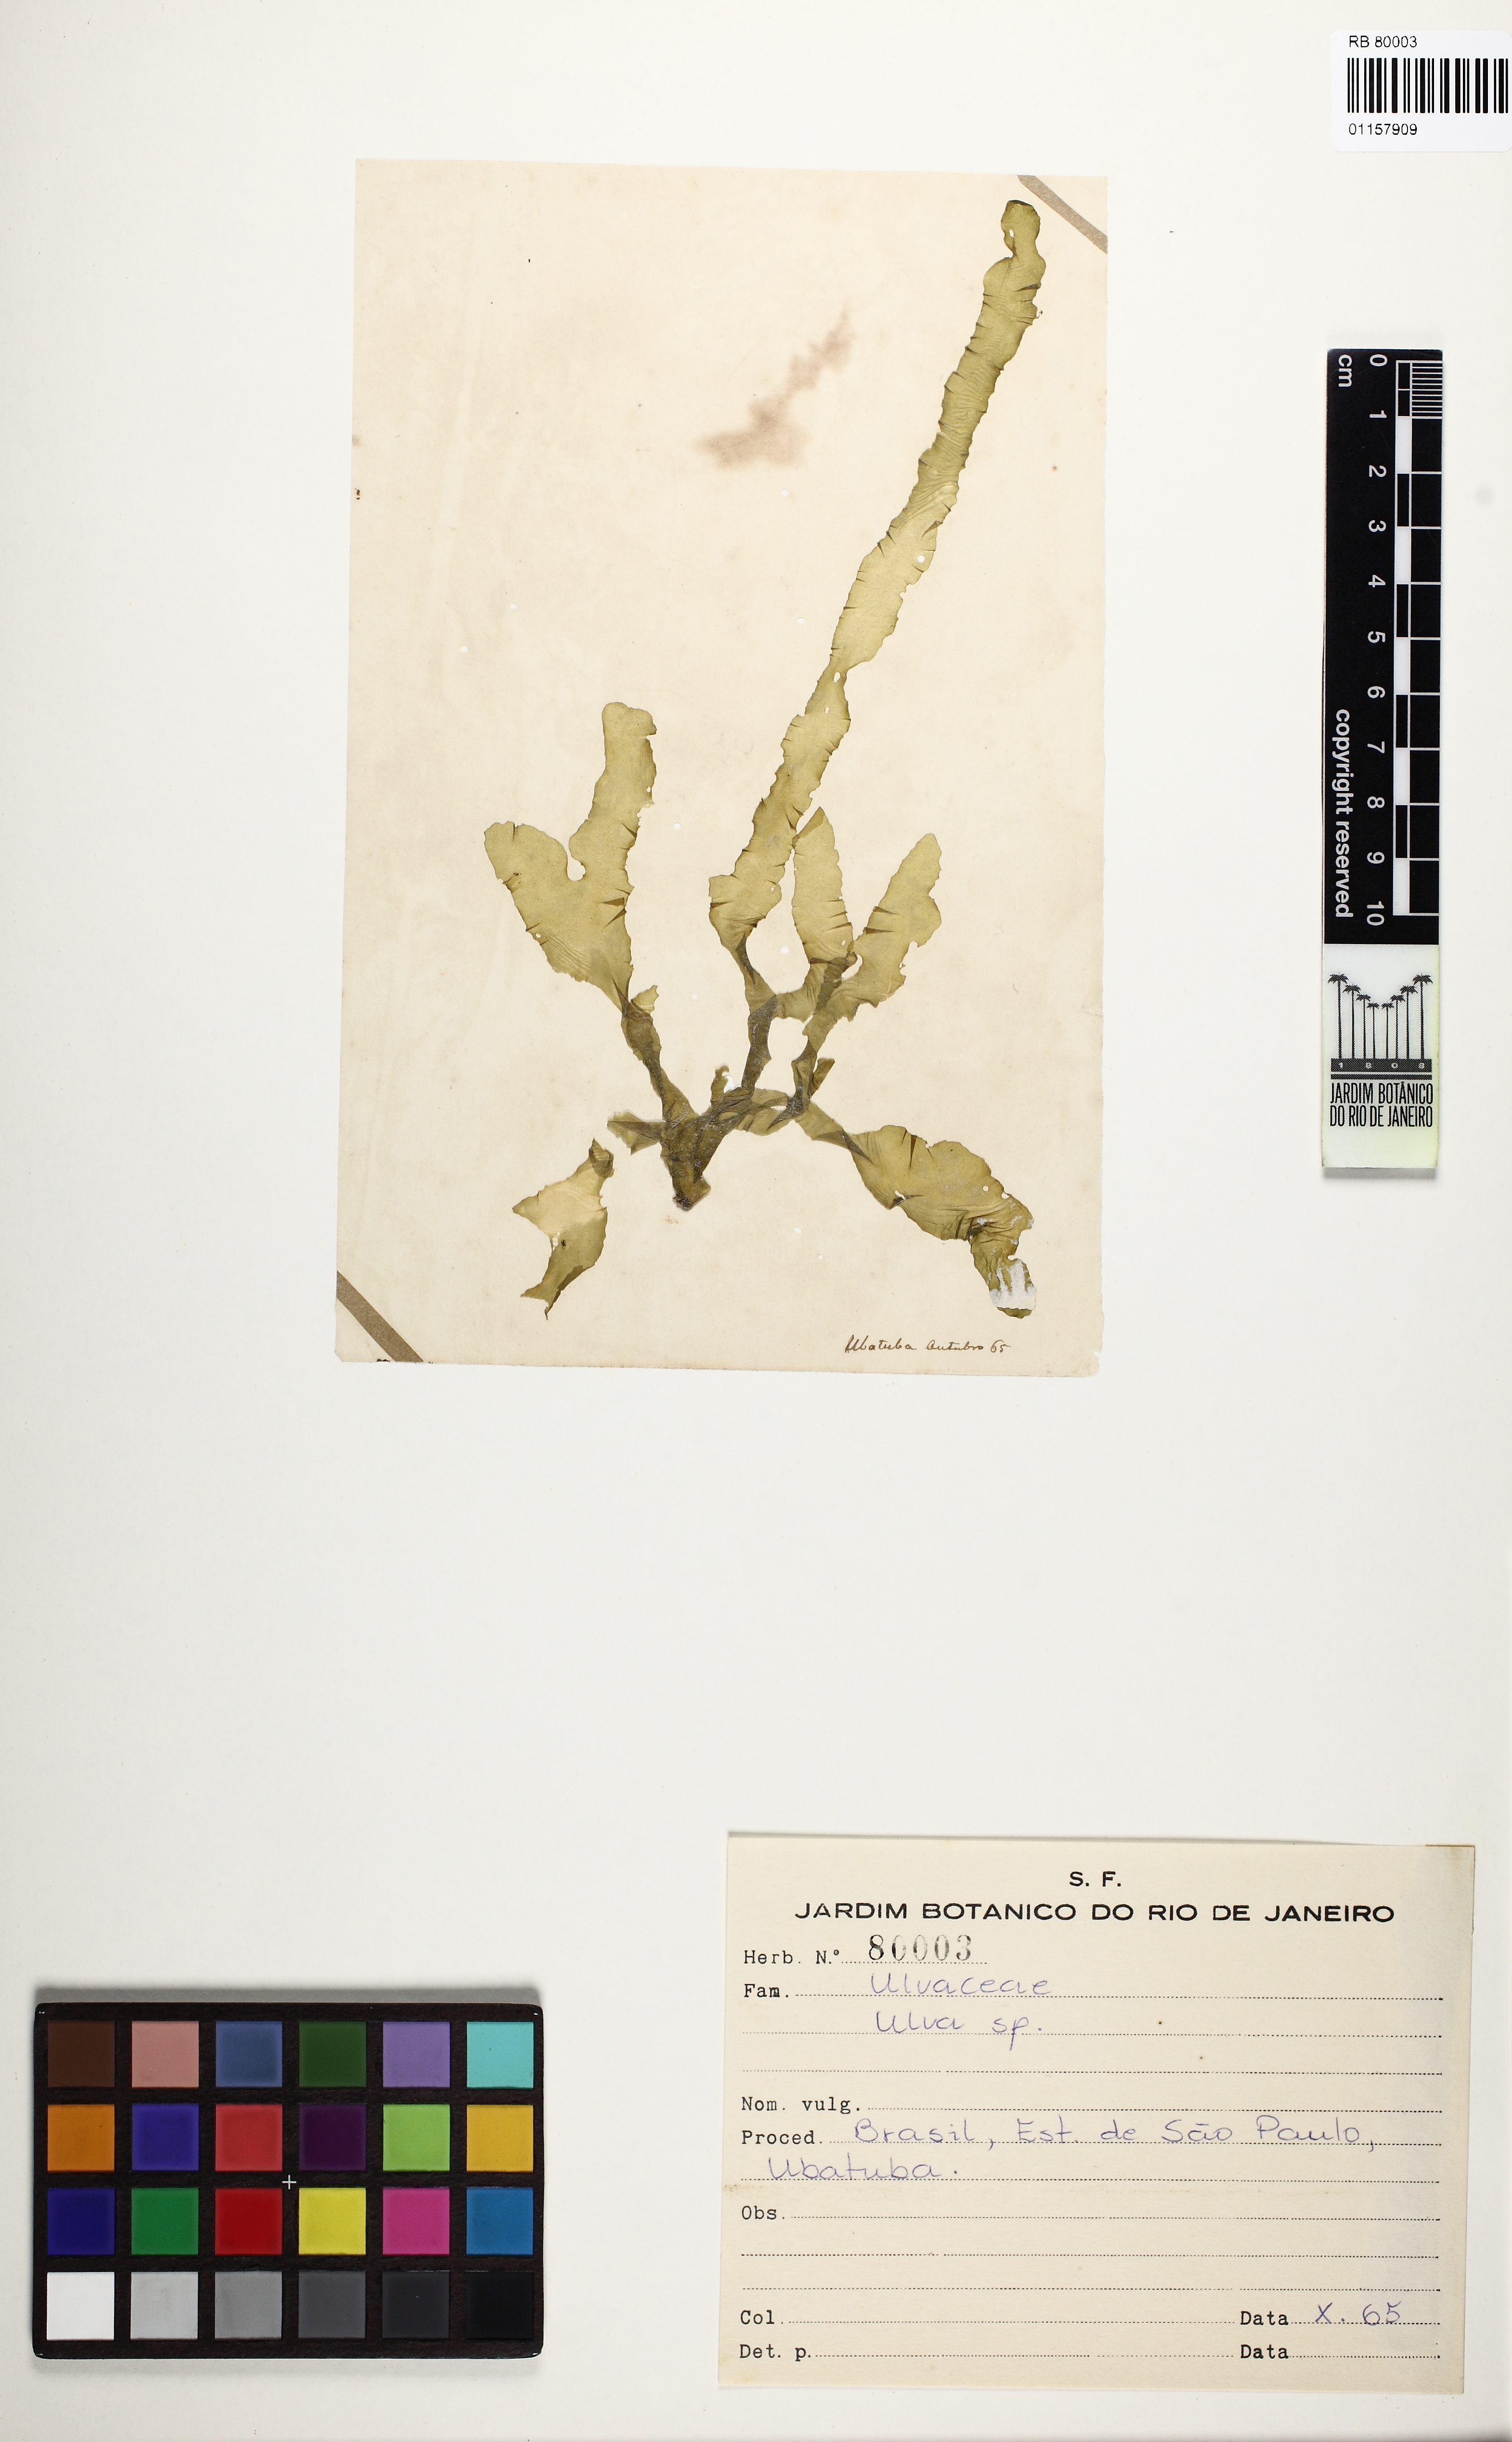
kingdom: Plantae
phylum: Chlorophyta
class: Ulvophyceae
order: Ulvales
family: Ulvaceae
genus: Ulva
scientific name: Ulva
